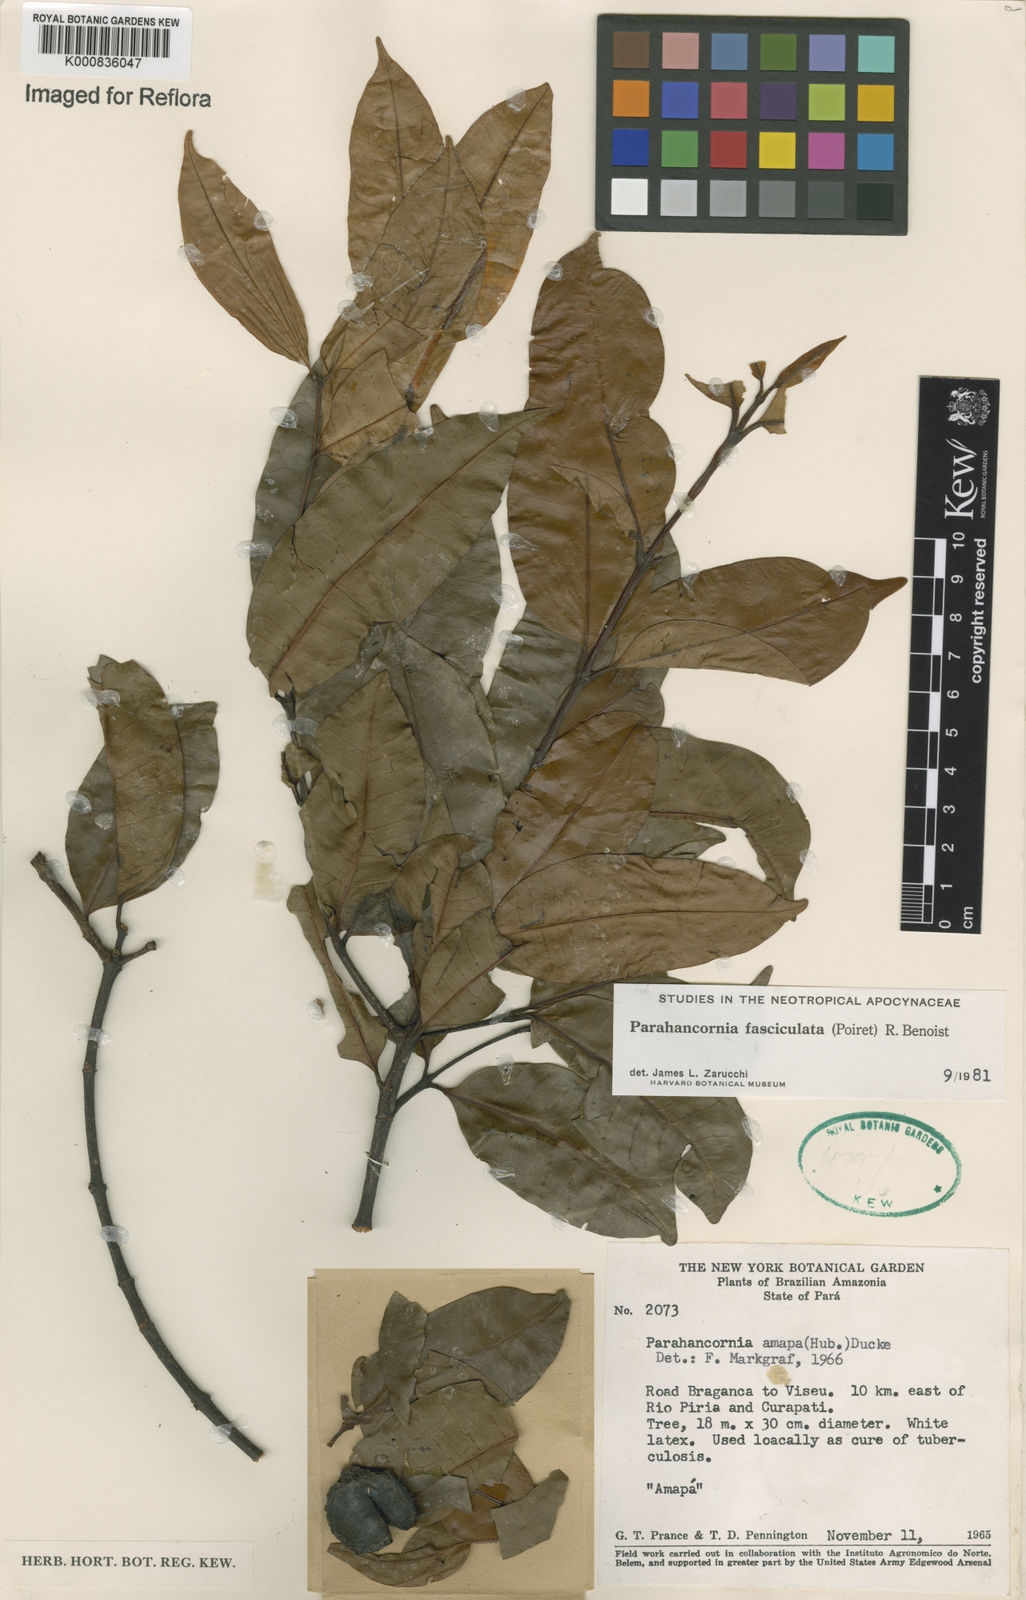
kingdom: Plantae
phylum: Tracheophyta
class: Magnoliopsida
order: Gentianales
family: Apocynaceae
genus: Parahancornia
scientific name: Parahancornia fasciculata
